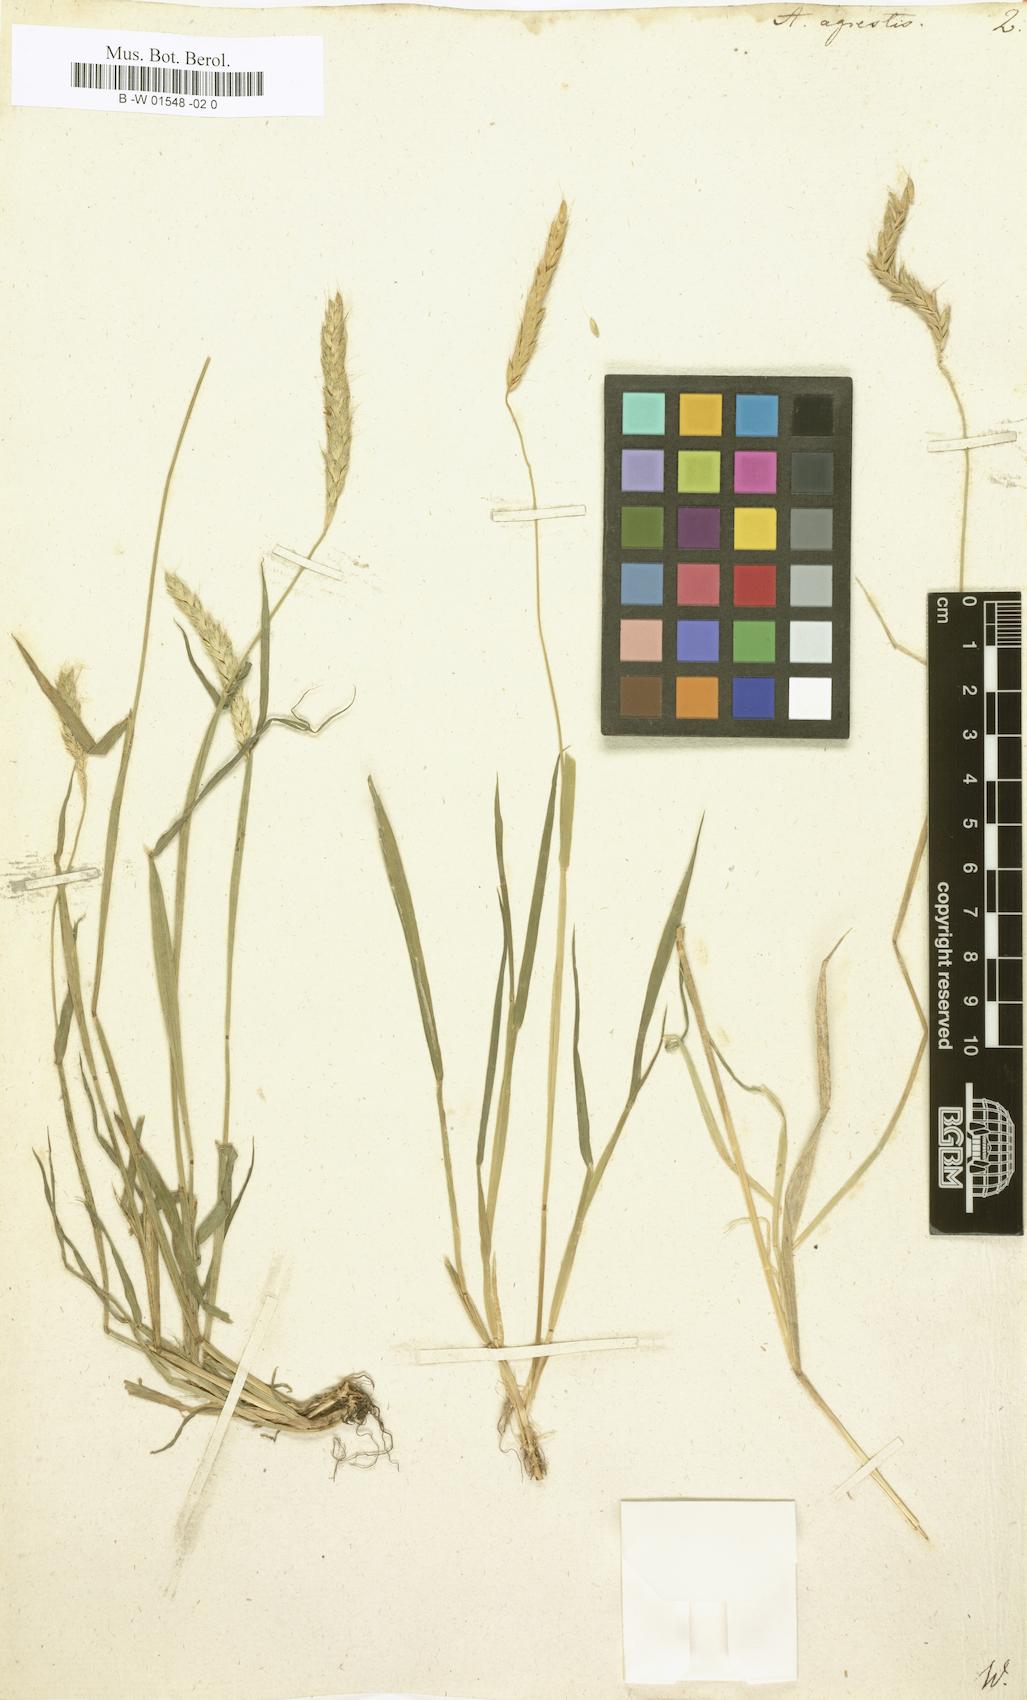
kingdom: Plantae
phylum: Tracheophyta
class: Liliopsida
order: Poales
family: Poaceae
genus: Alopecurus
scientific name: Alopecurus myosuroides
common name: Black-grass
